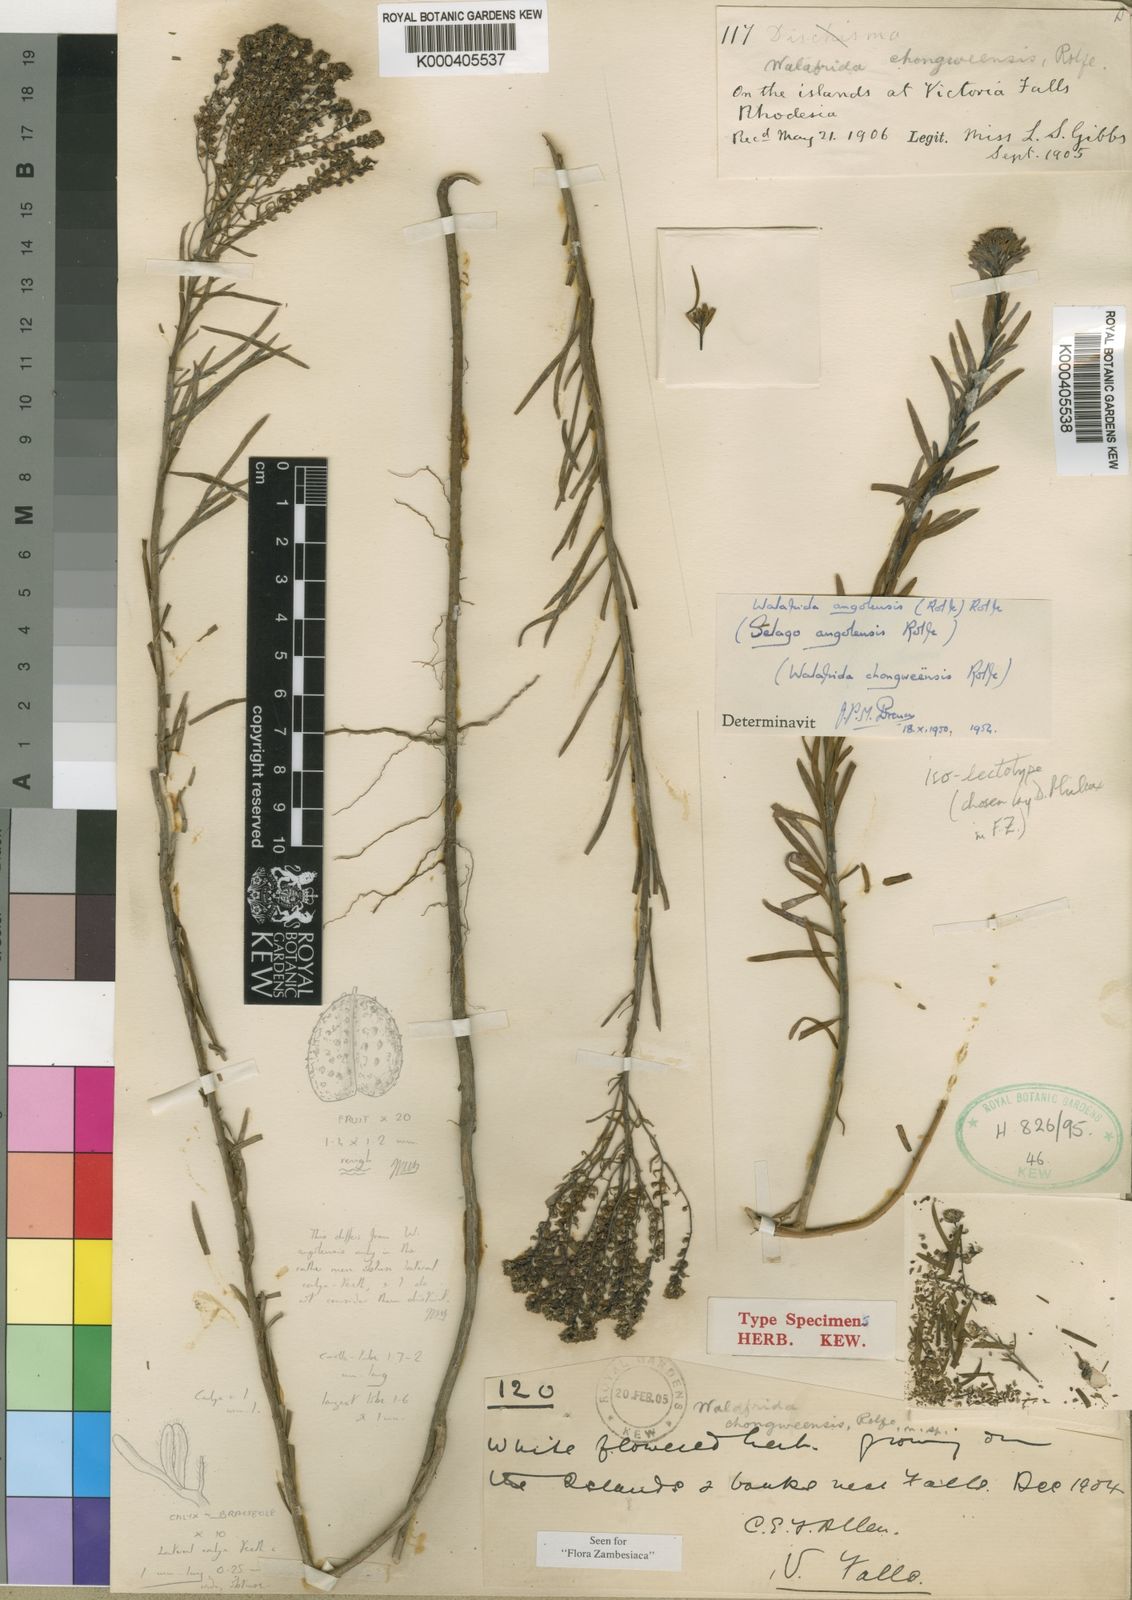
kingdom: Plantae
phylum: Tracheophyta
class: Magnoliopsida
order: Lamiales
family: Scrophulariaceae
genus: Selago
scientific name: Selago angolensis
